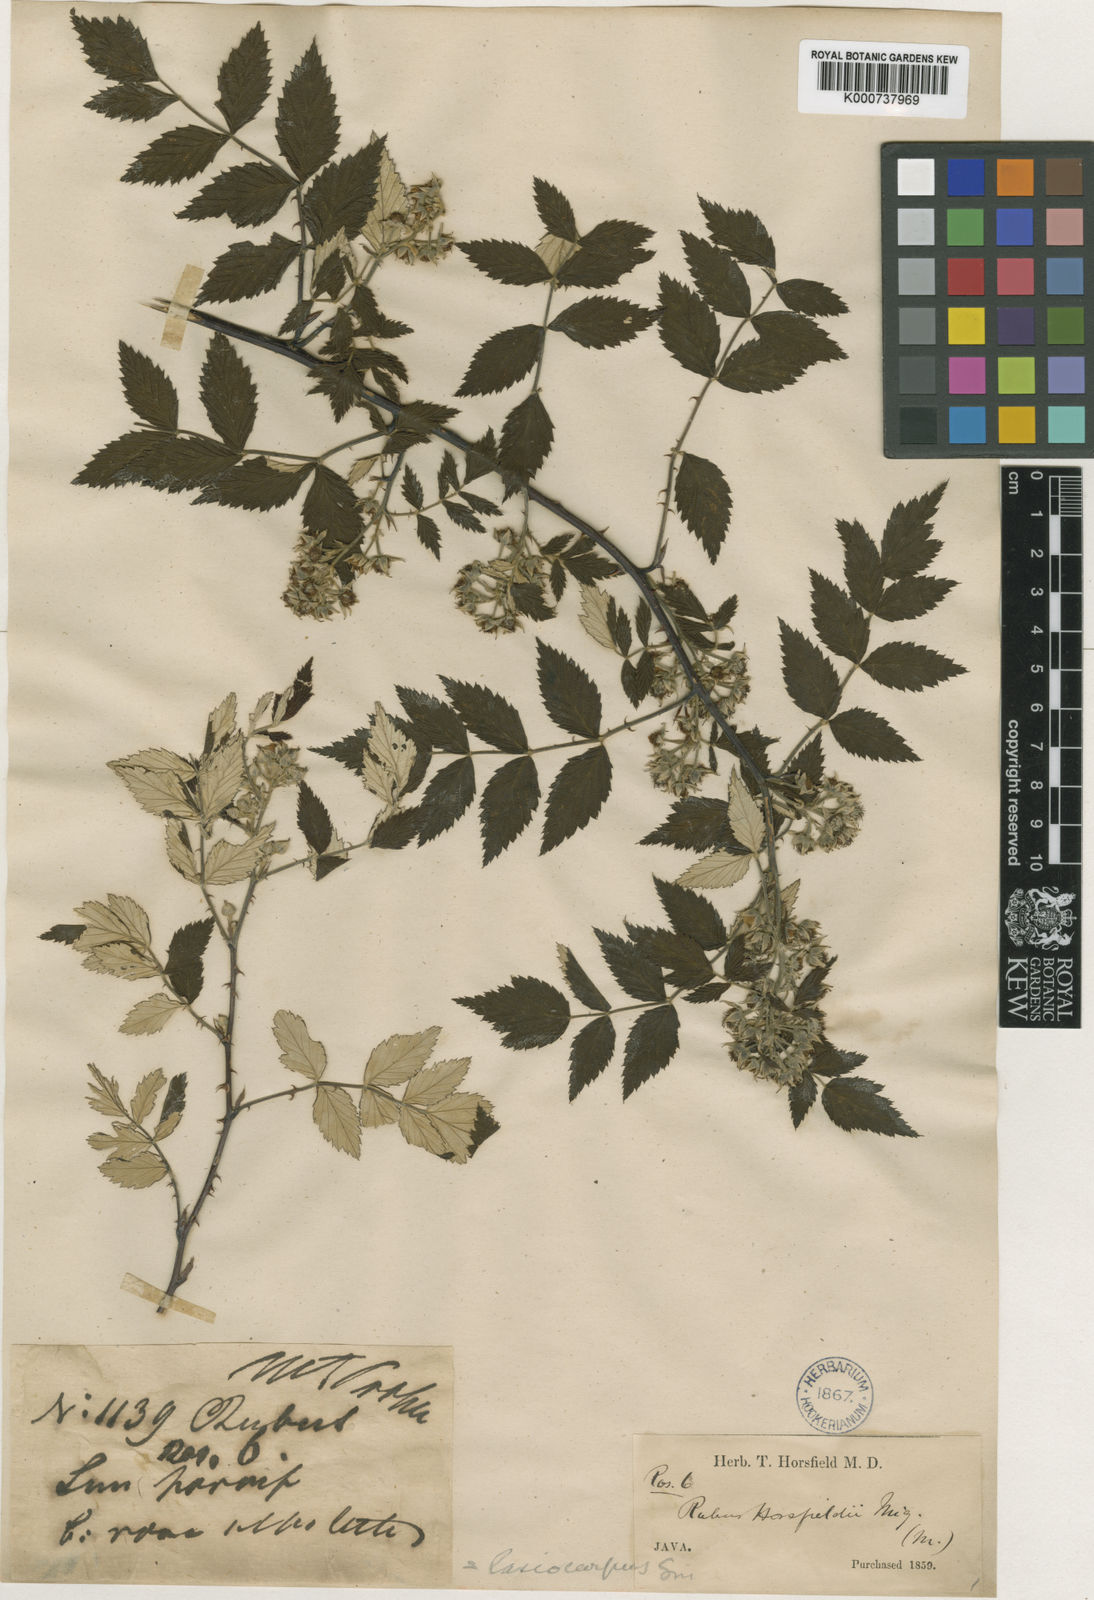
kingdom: Plantae
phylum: Tracheophyta
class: Magnoliopsida
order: Rosales
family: Rosaceae
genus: Rubus
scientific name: Rubus niveus
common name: Snowpeaks raspberry
